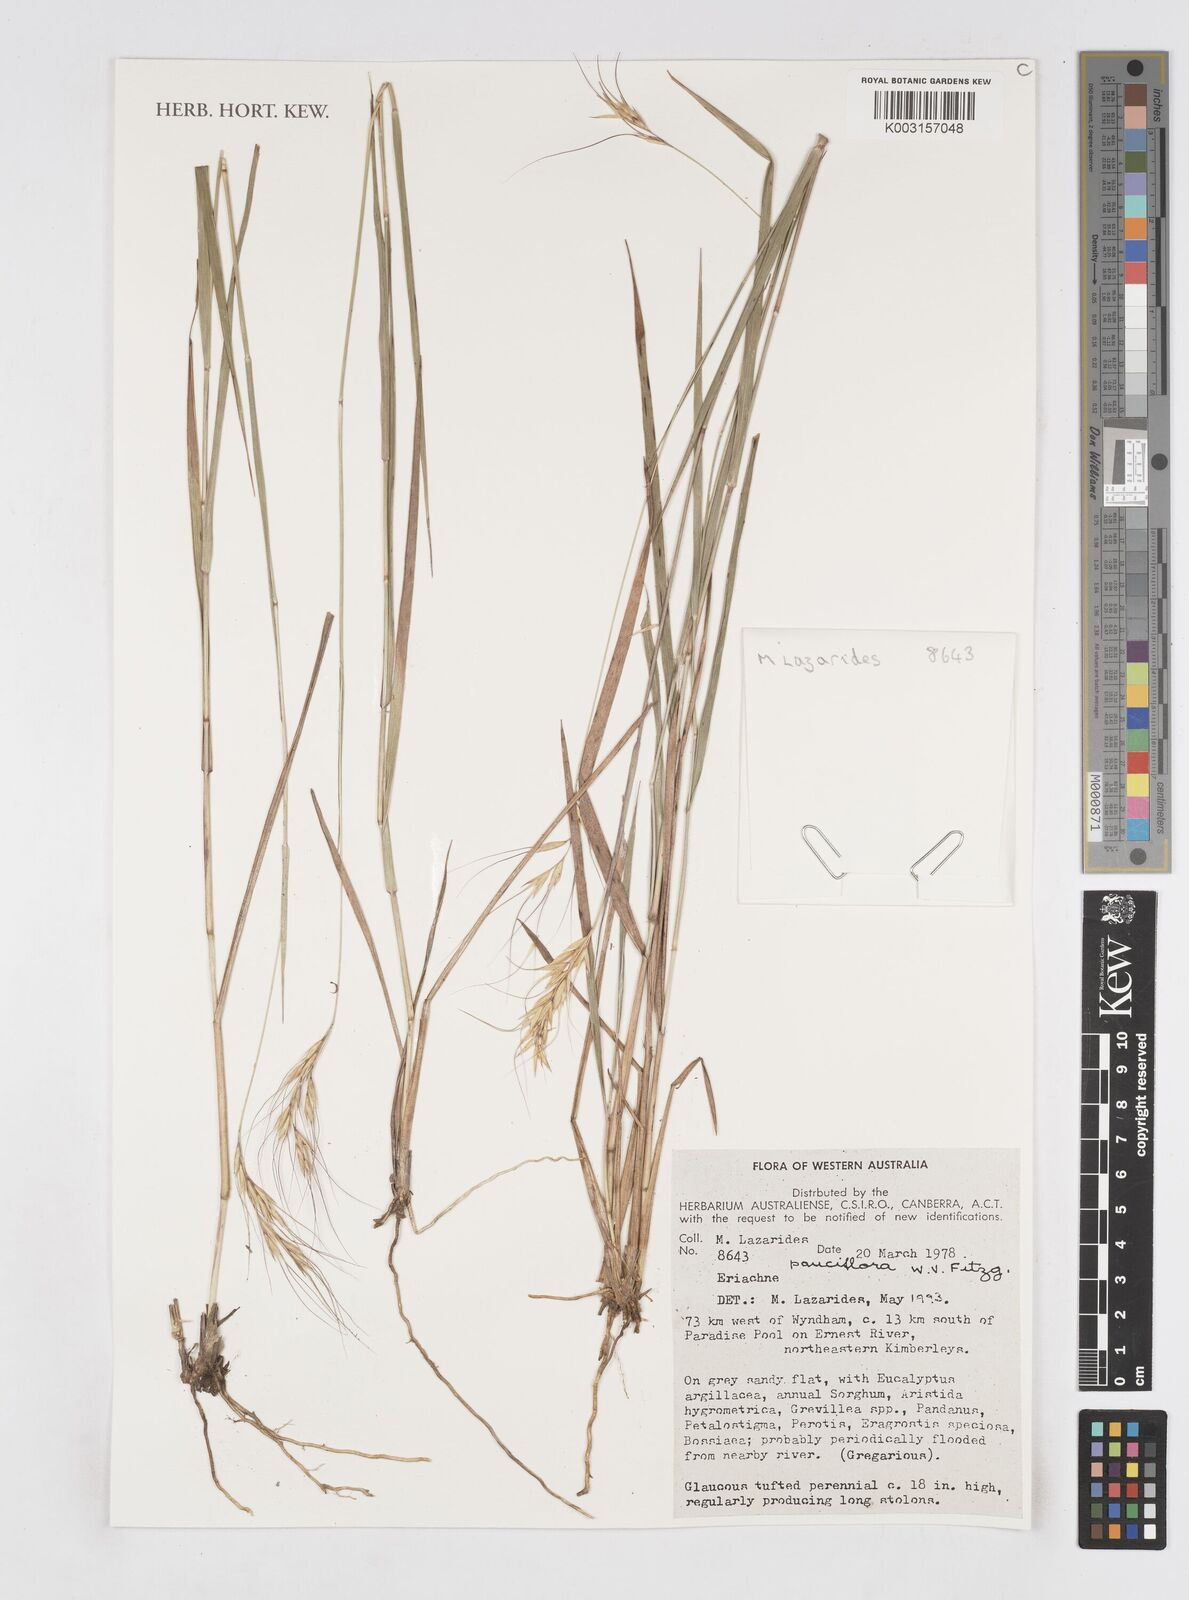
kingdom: Plantae
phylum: Tracheophyta
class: Liliopsida
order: Poales
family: Poaceae
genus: Eriachne
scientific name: Eriachne pauciflora
